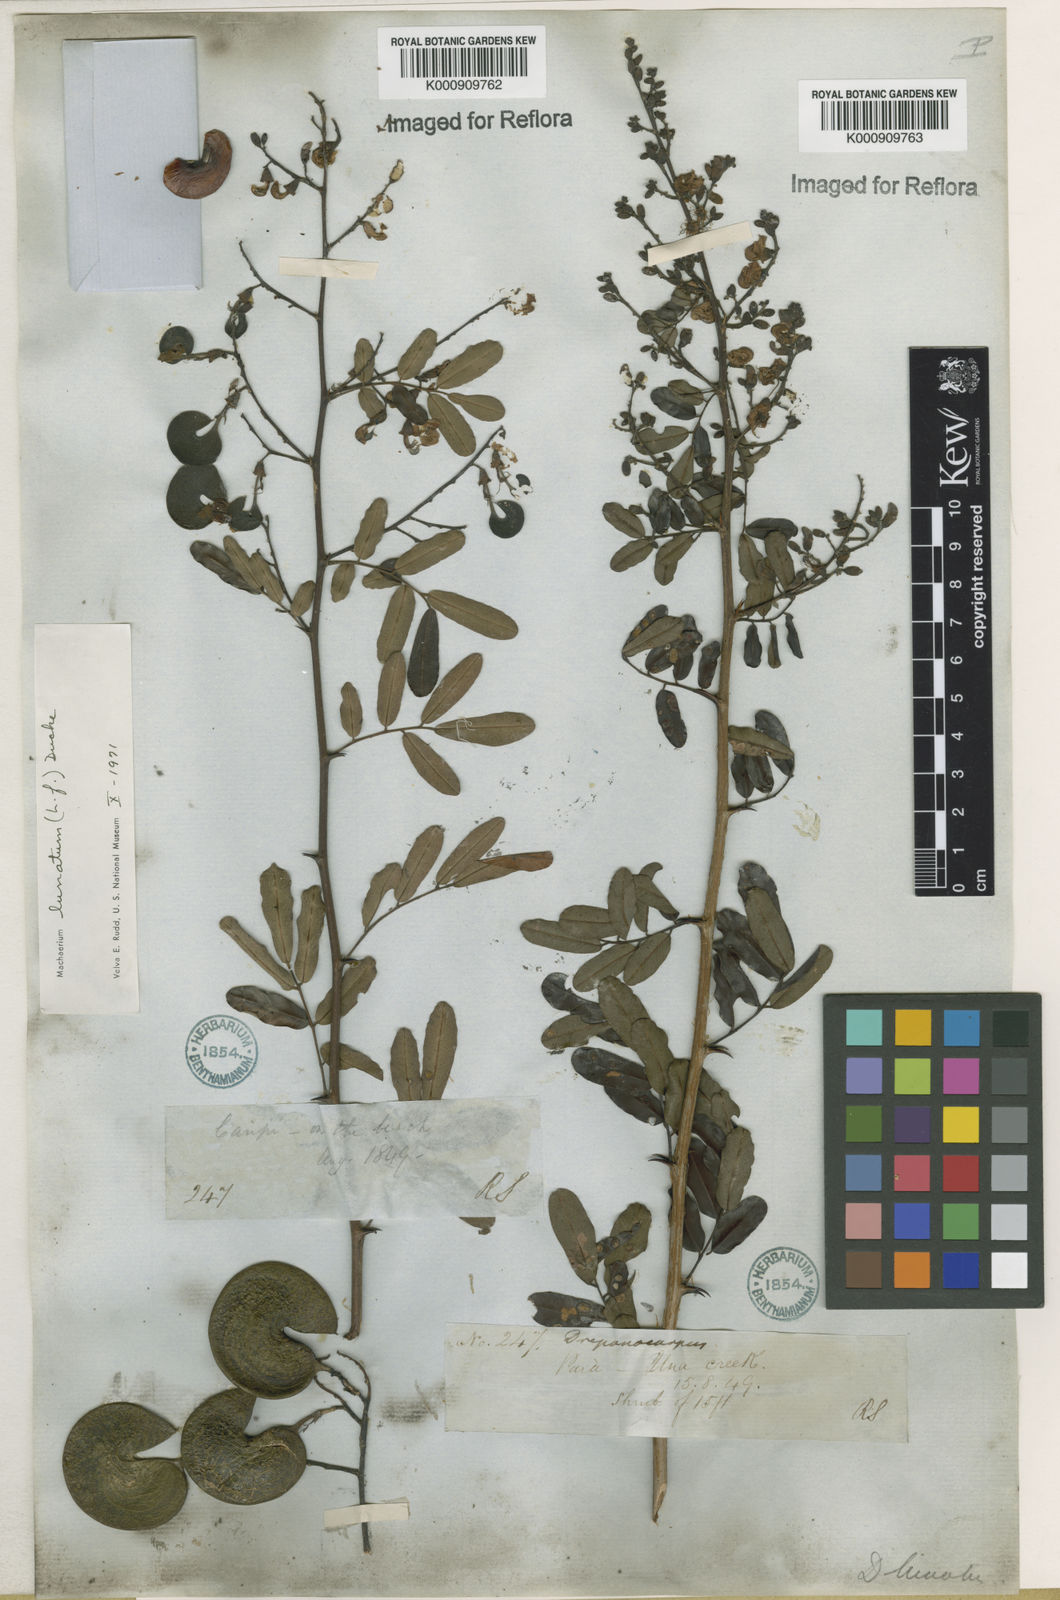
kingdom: Plantae
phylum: Tracheophyta
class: Magnoliopsida
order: Fabales
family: Fabaceae
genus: Machaerium
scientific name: Machaerium lunatum
